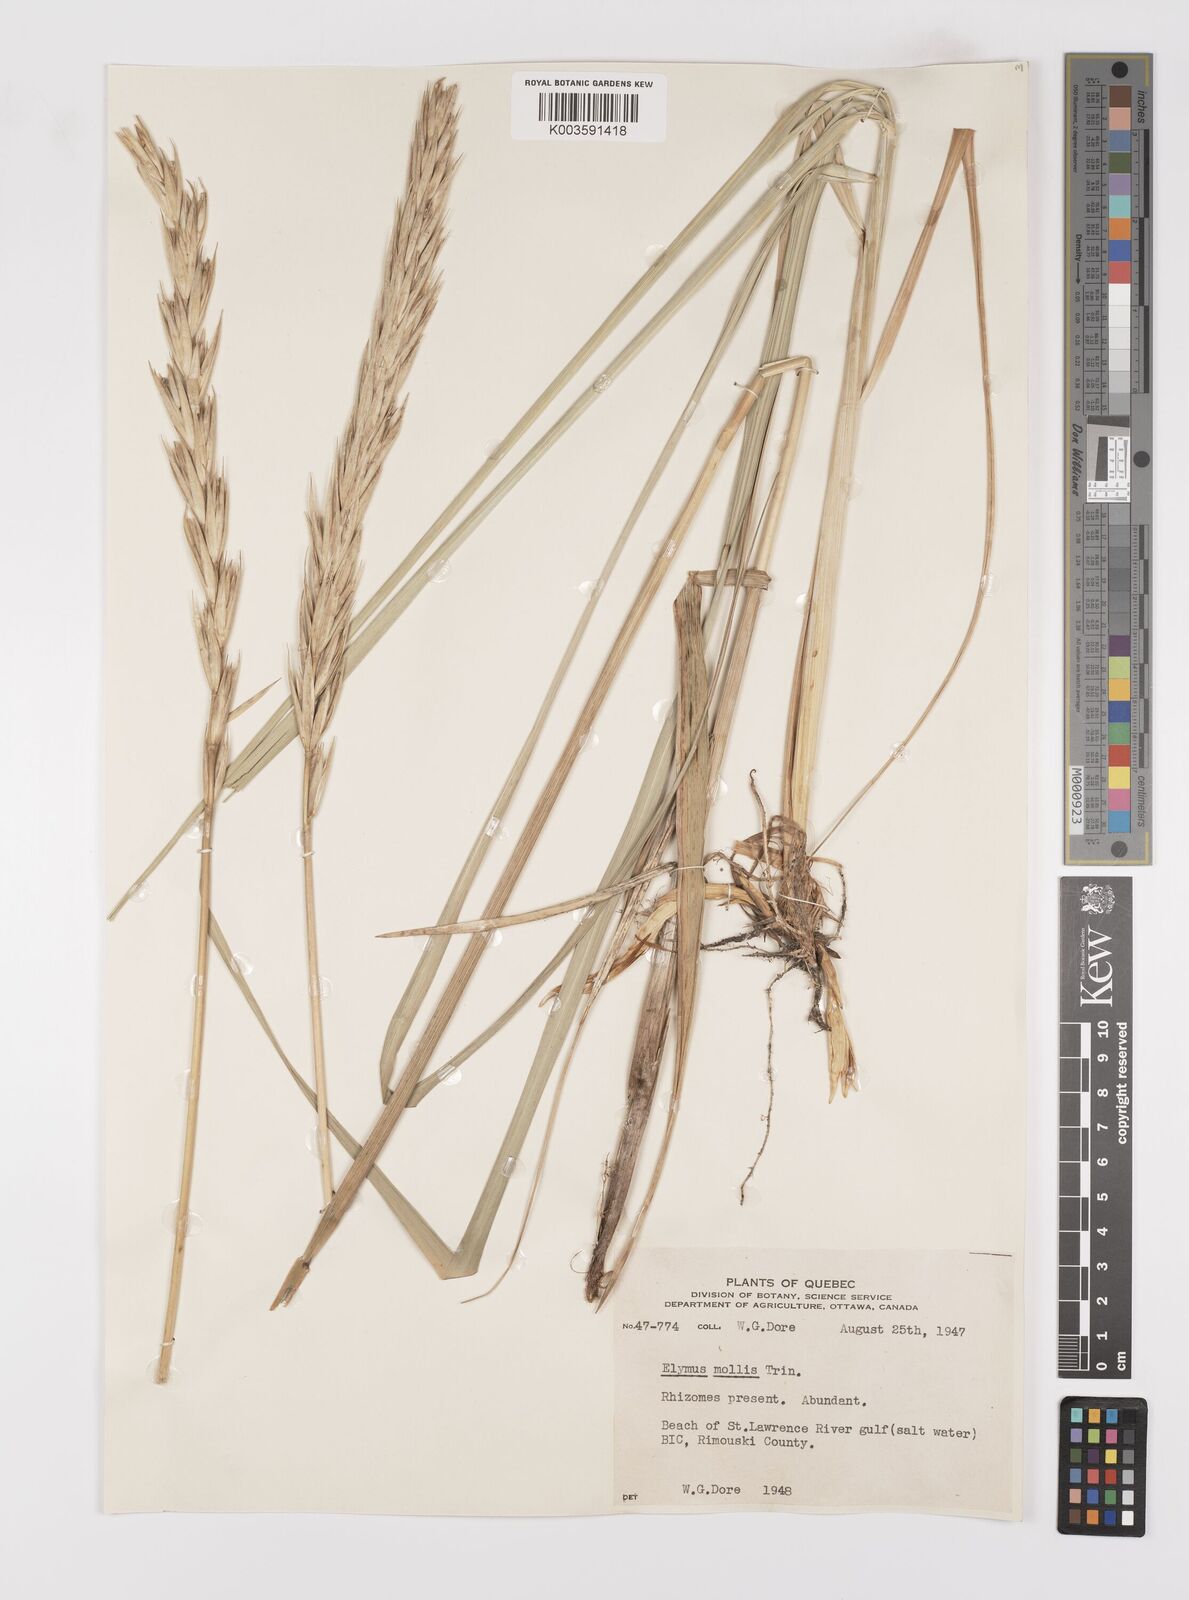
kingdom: Plantae
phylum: Tracheophyta
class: Liliopsida
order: Poales
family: Poaceae
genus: Leymus
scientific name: Leymus mollis
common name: American dune grass
